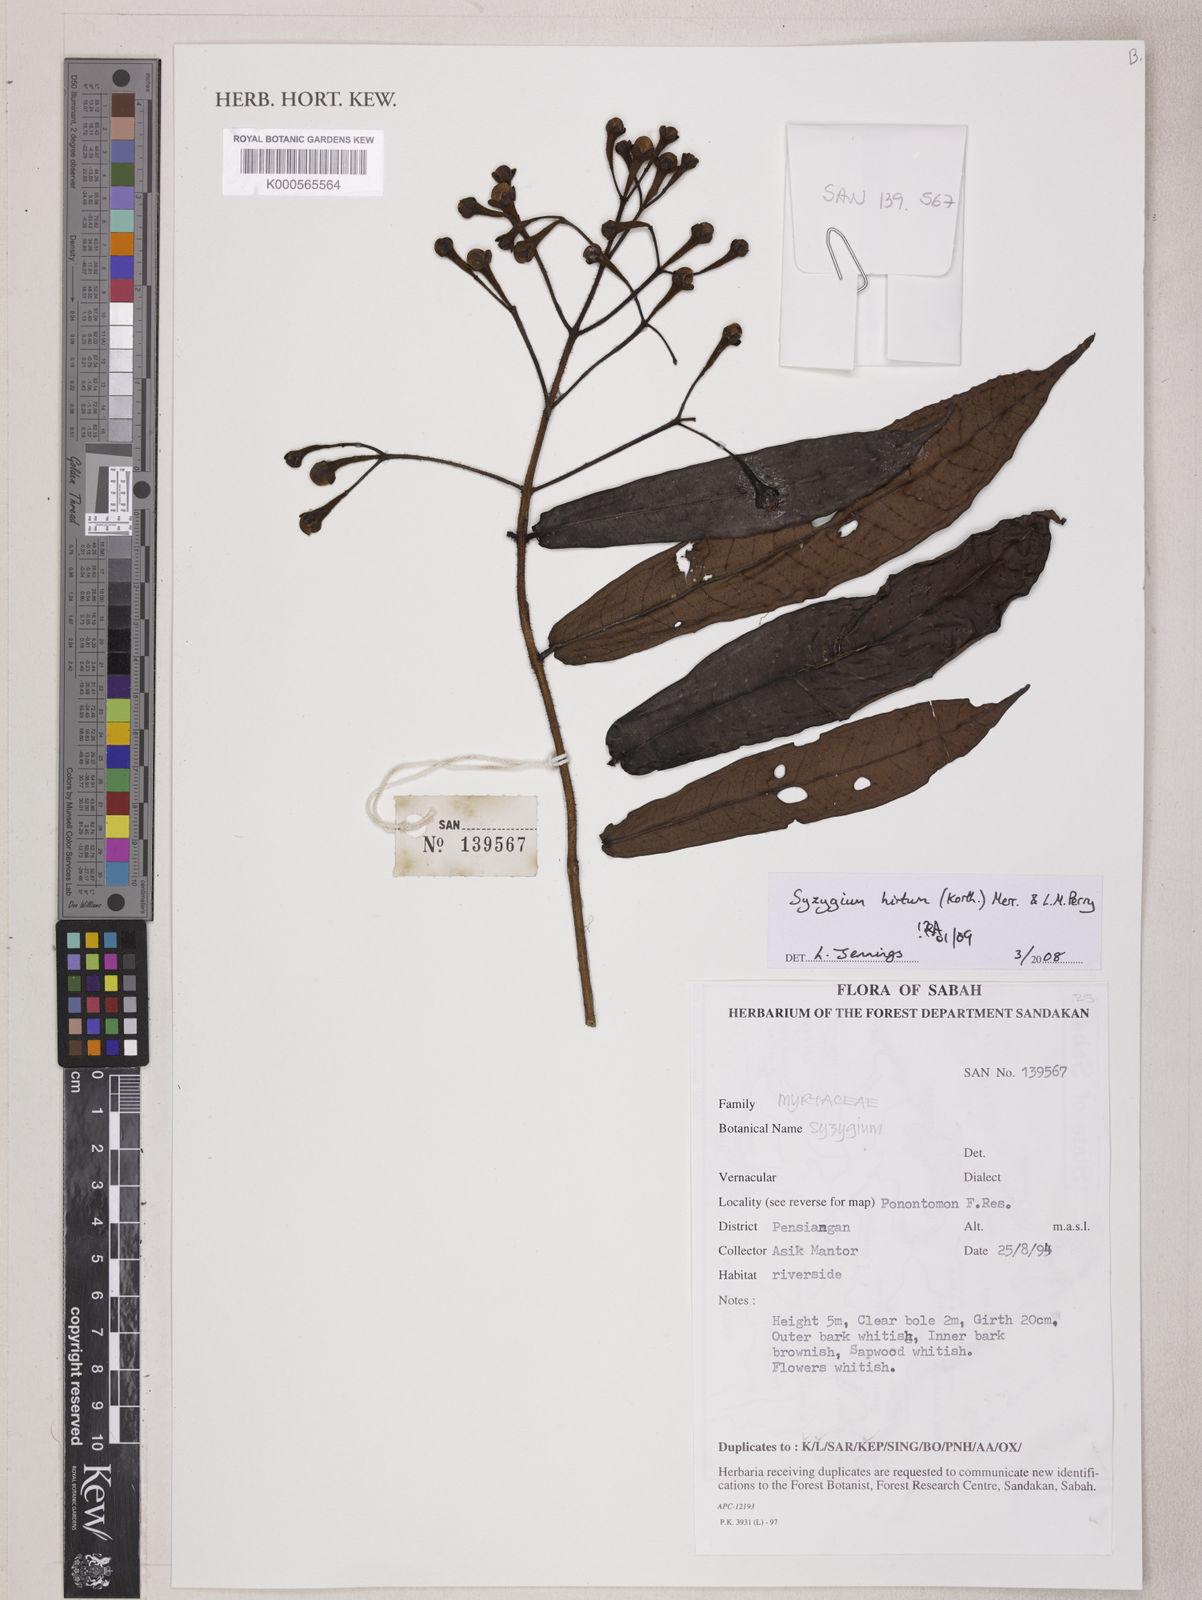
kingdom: Plantae
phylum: Tracheophyta
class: Magnoliopsida
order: Myrtales
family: Myrtaceae
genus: Syzygium
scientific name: Syzygium hirtum
